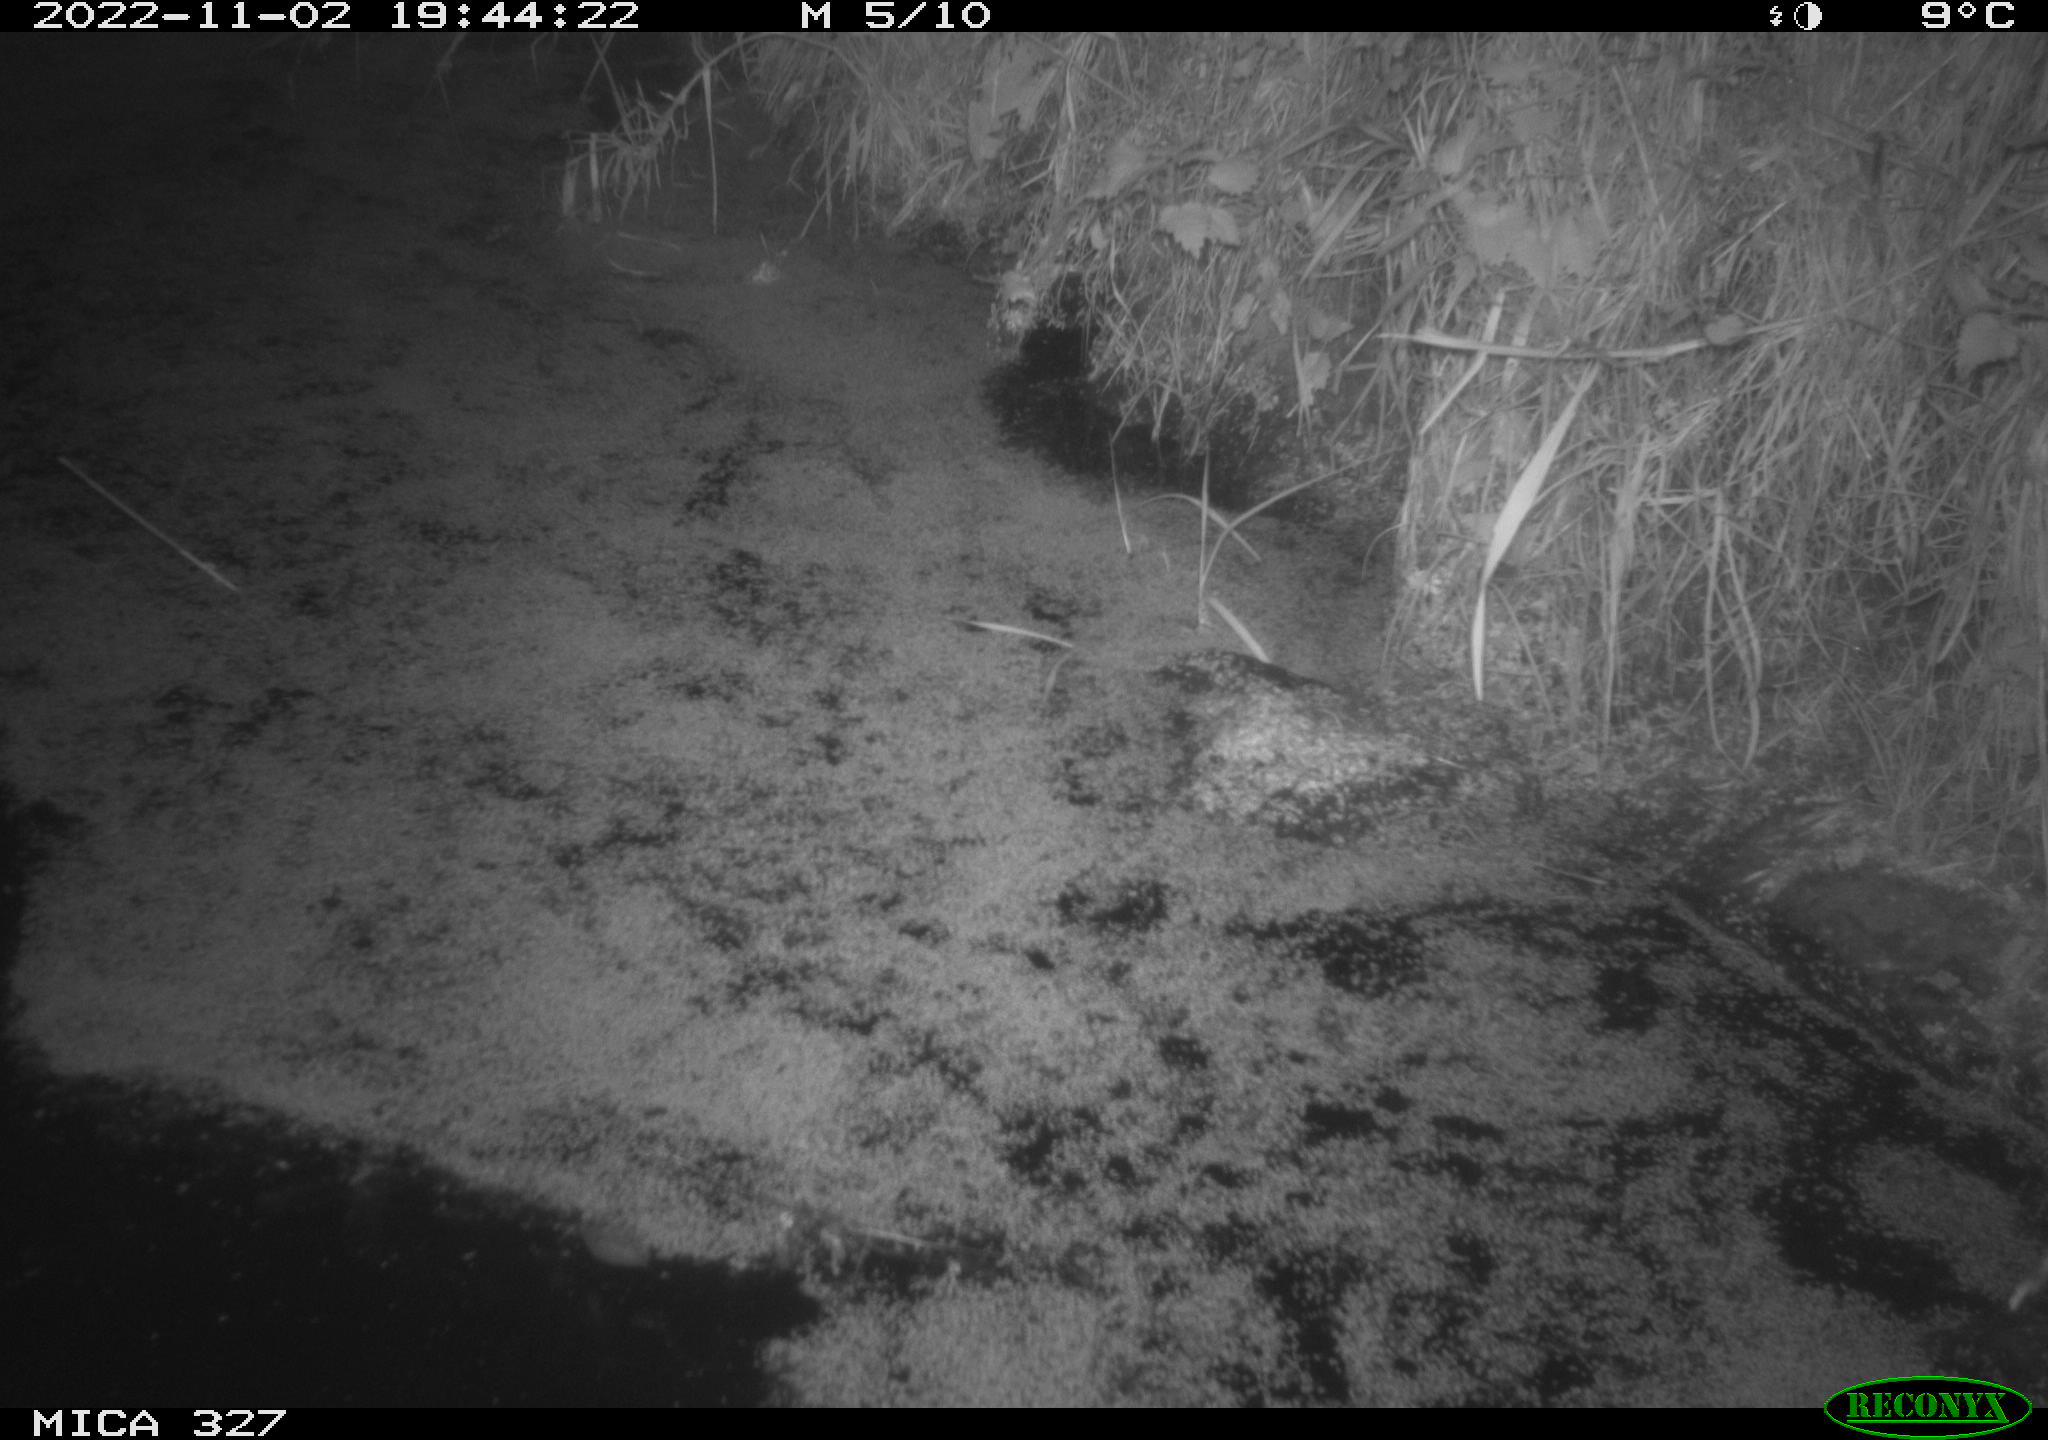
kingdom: Animalia
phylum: Chordata
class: Mammalia
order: Rodentia
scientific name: Rodentia
